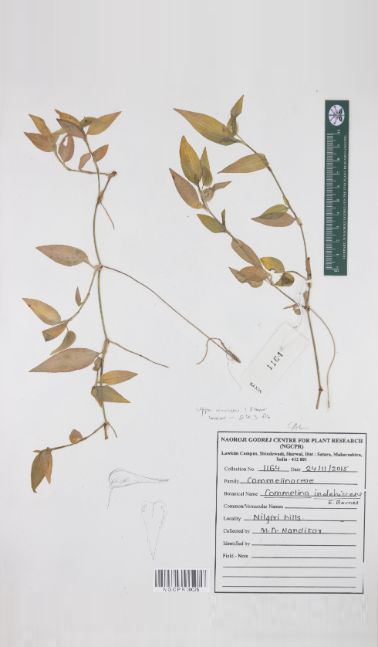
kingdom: Plantae
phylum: Tracheophyta
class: Liliopsida
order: Commelinales
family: Commelinaceae
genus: Commelina
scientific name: Commelina indehiscens
